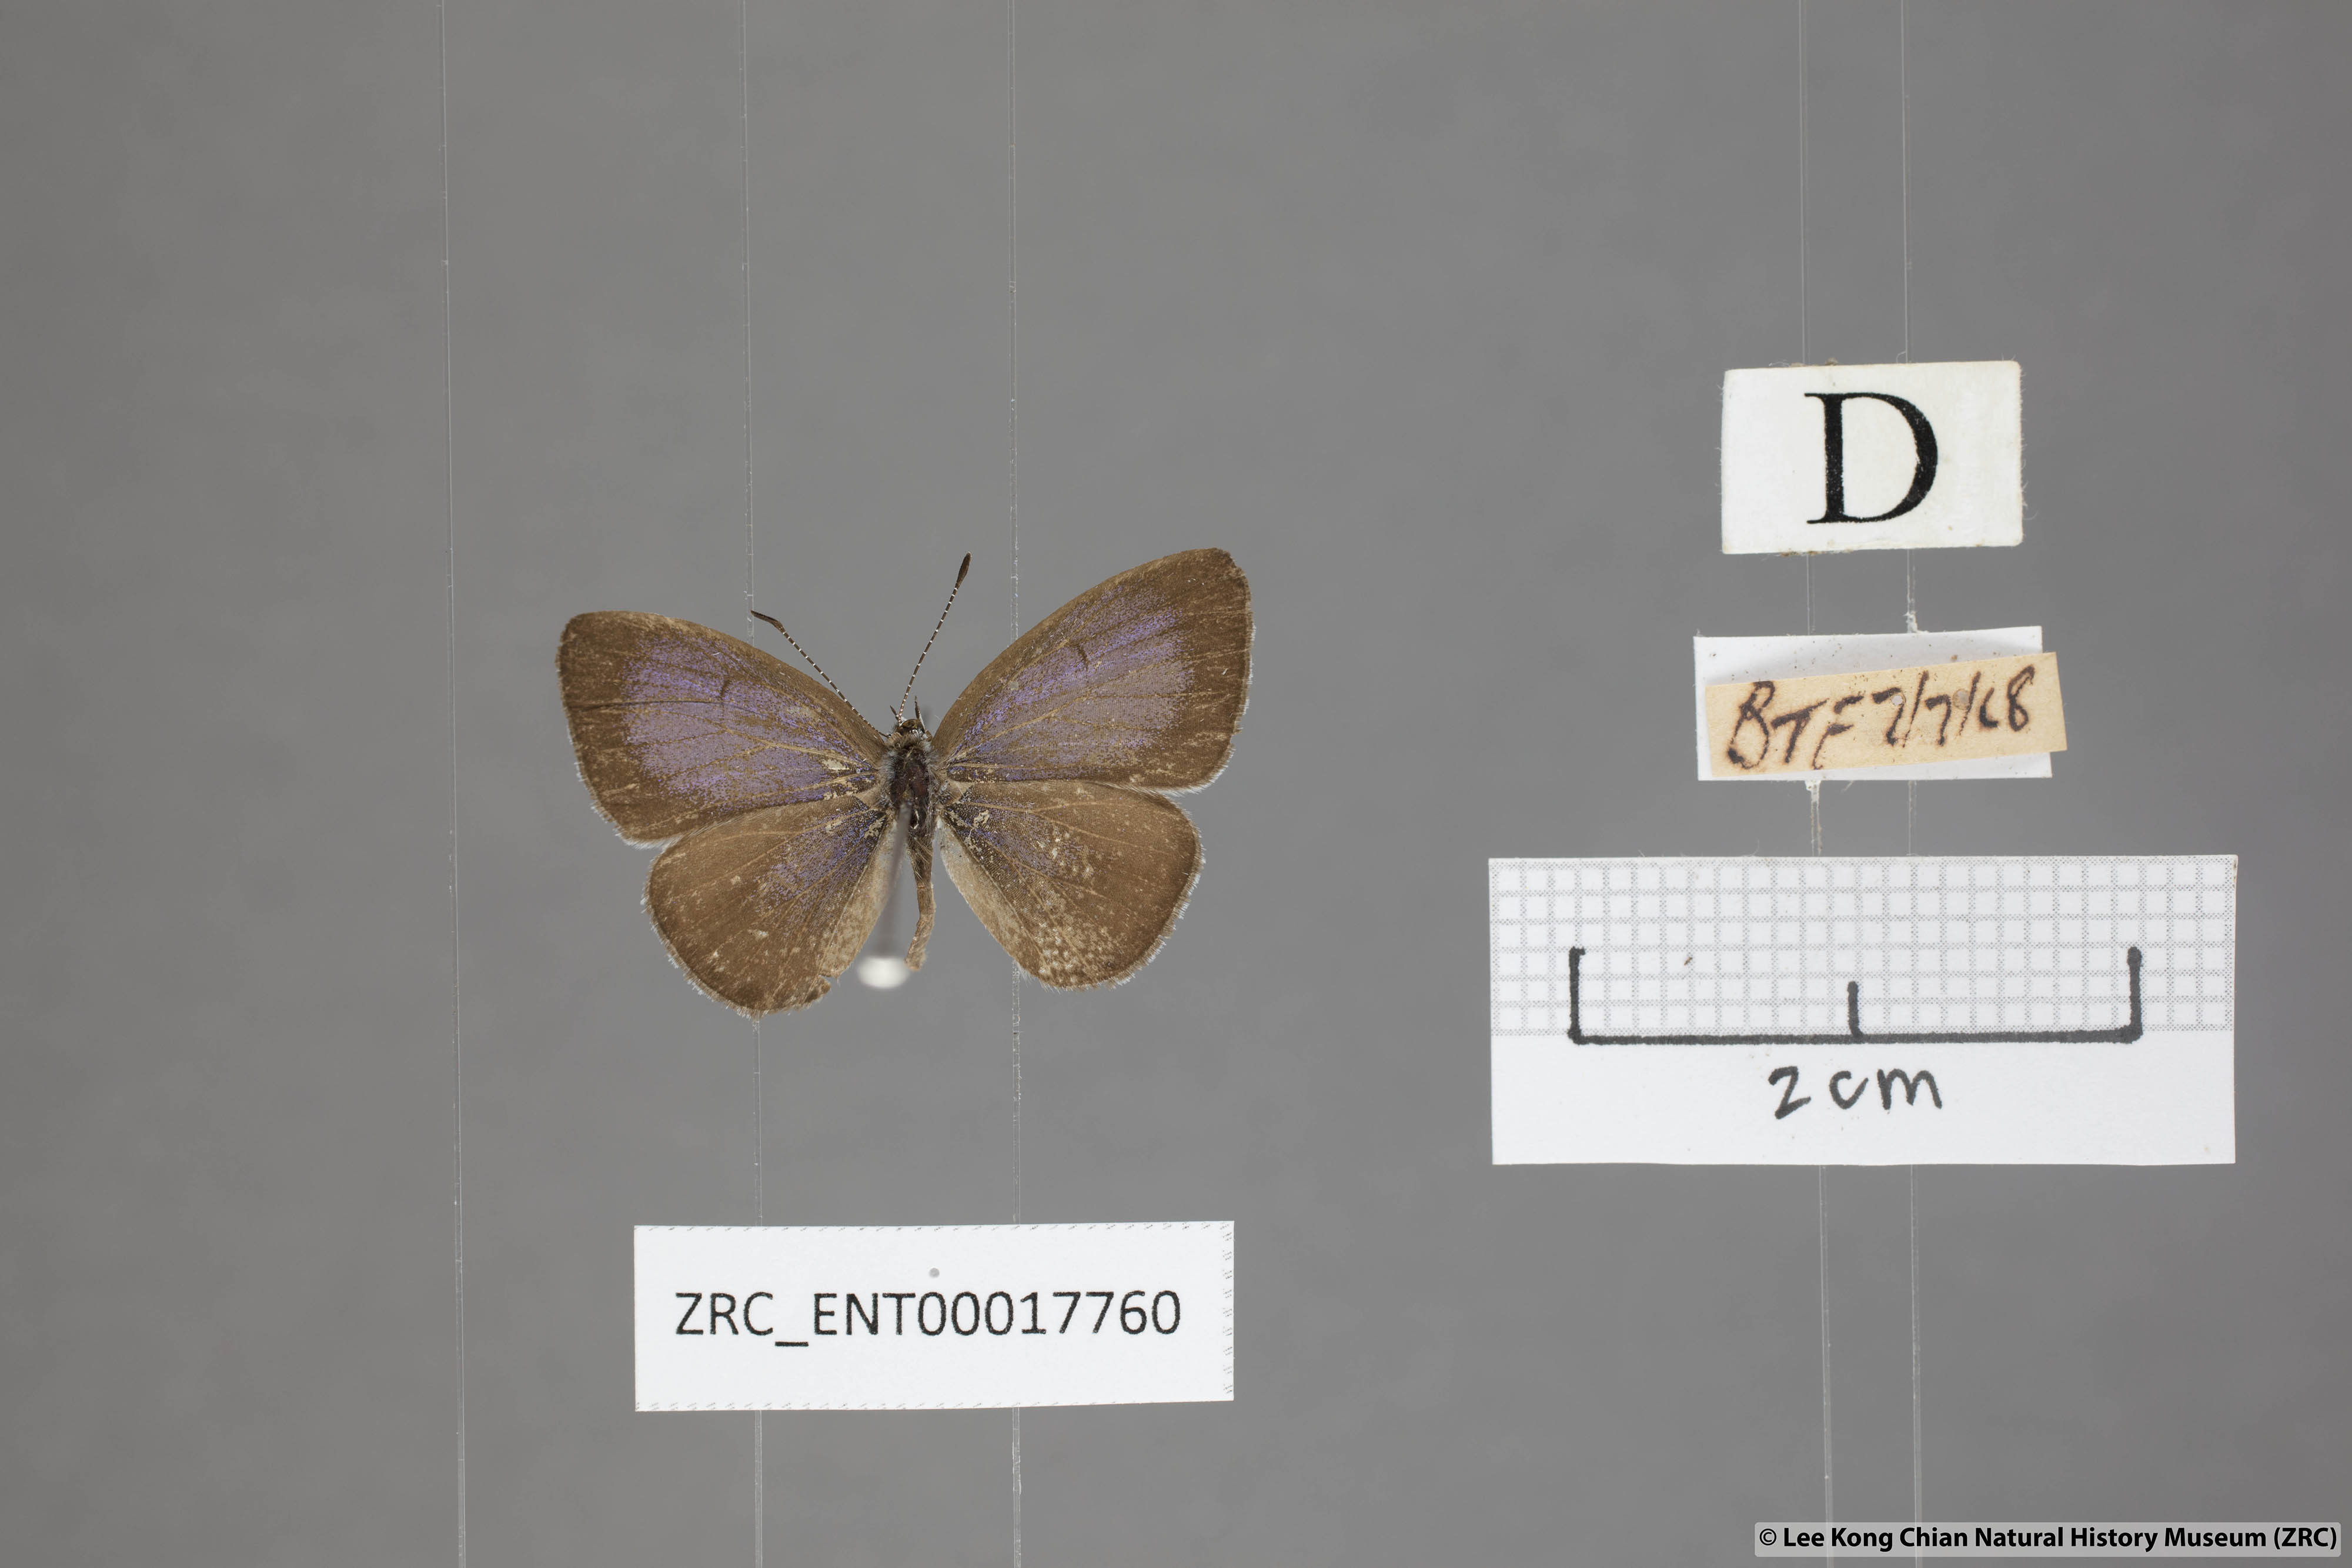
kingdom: Animalia
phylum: Arthropoda
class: Insecta
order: Lepidoptera
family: Lycaenidae
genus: Udara
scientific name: Udara
